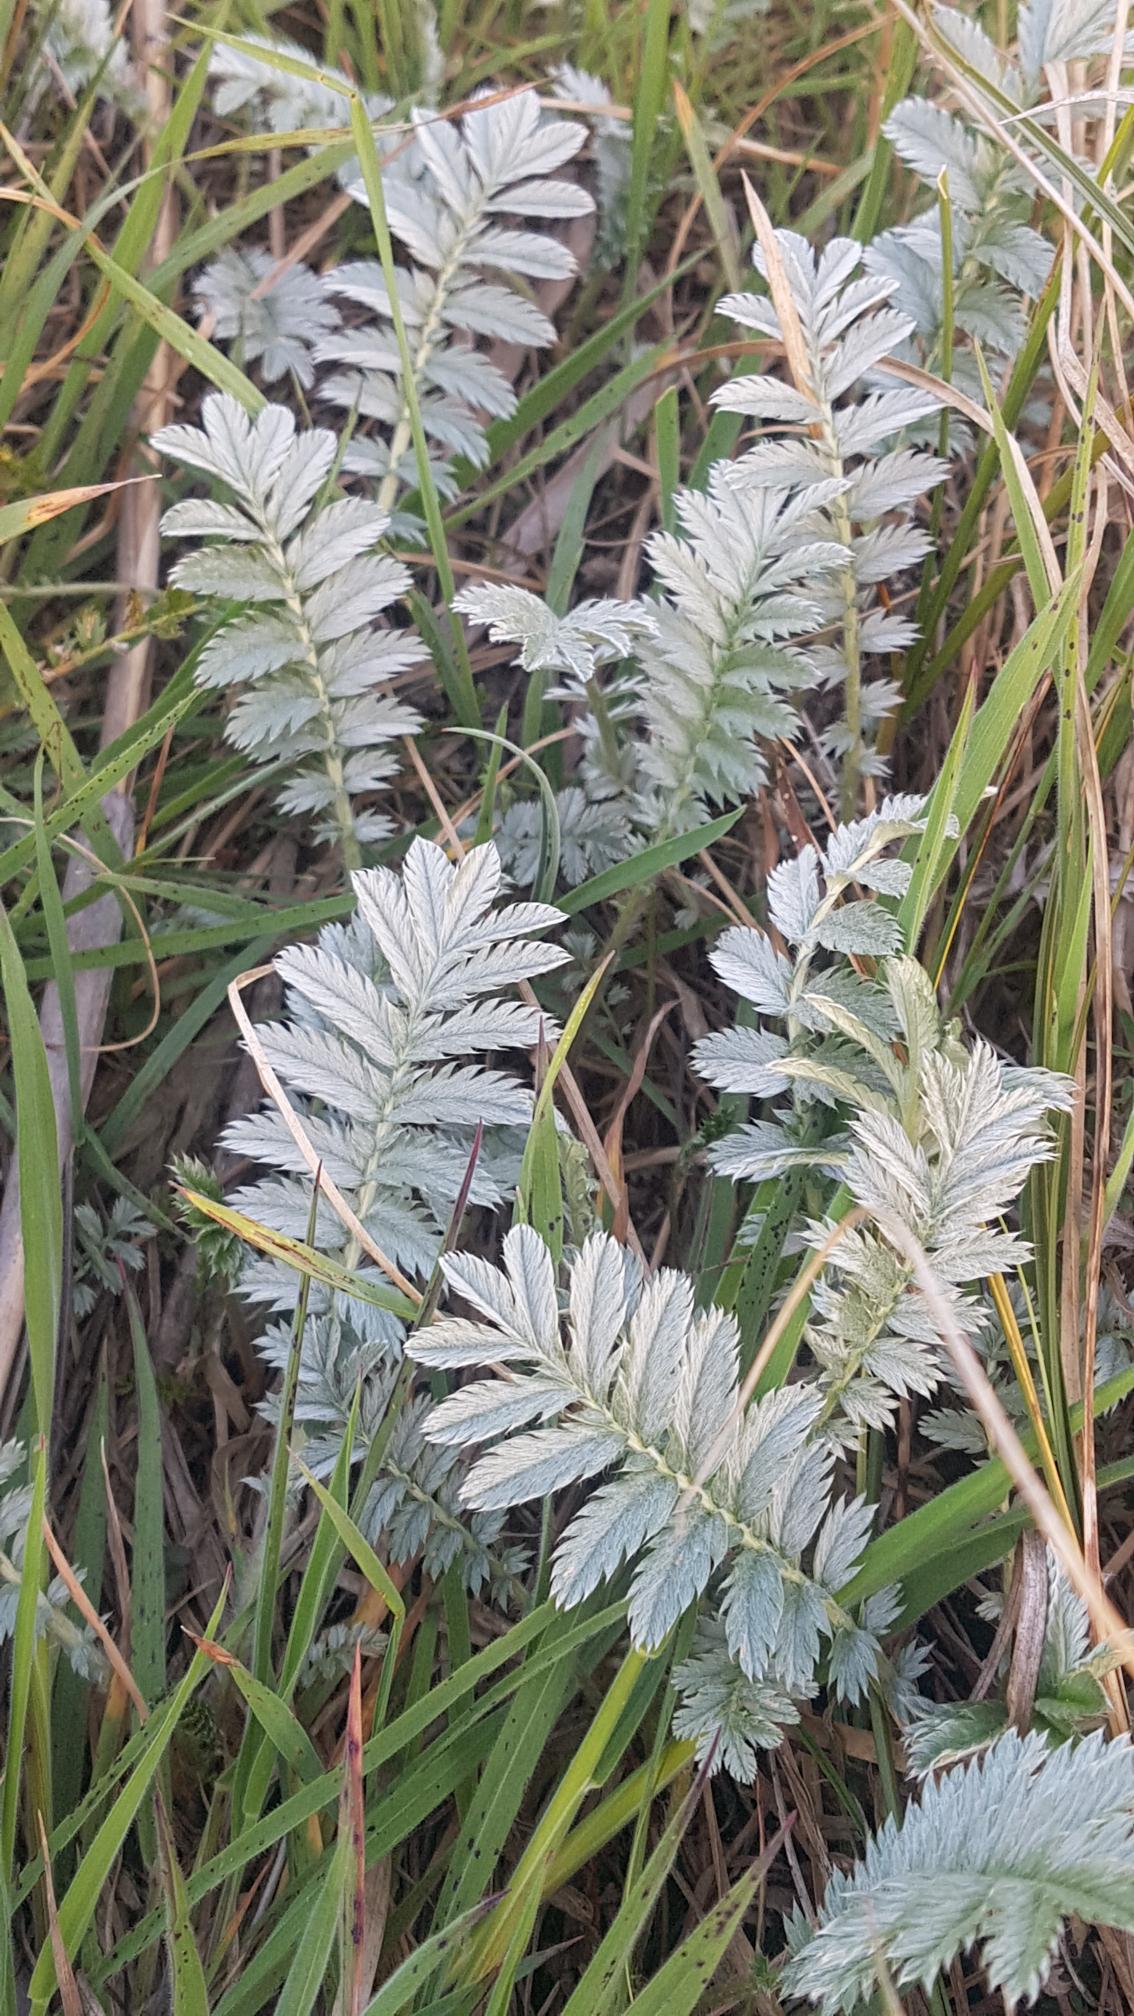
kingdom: Plantae
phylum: Tracheophyta
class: Magnoliopsida
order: Rosales
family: Rosaceae
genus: Argentina
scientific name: Argentina anserina
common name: Gåsepotentil
